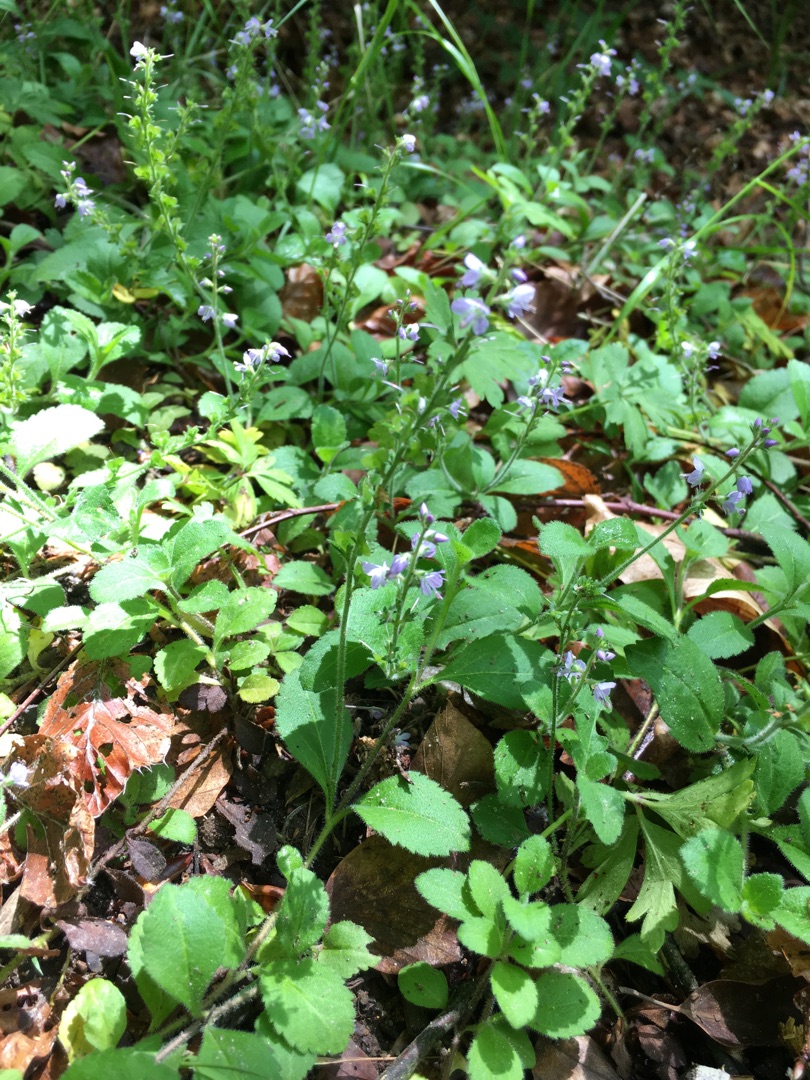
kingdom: Plantae
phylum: Tracheophyta
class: Magnoliopsida
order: Lamiales
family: Plantaginaceae
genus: Veronica
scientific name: Veronica officinalis
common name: Læge-ærenpris
